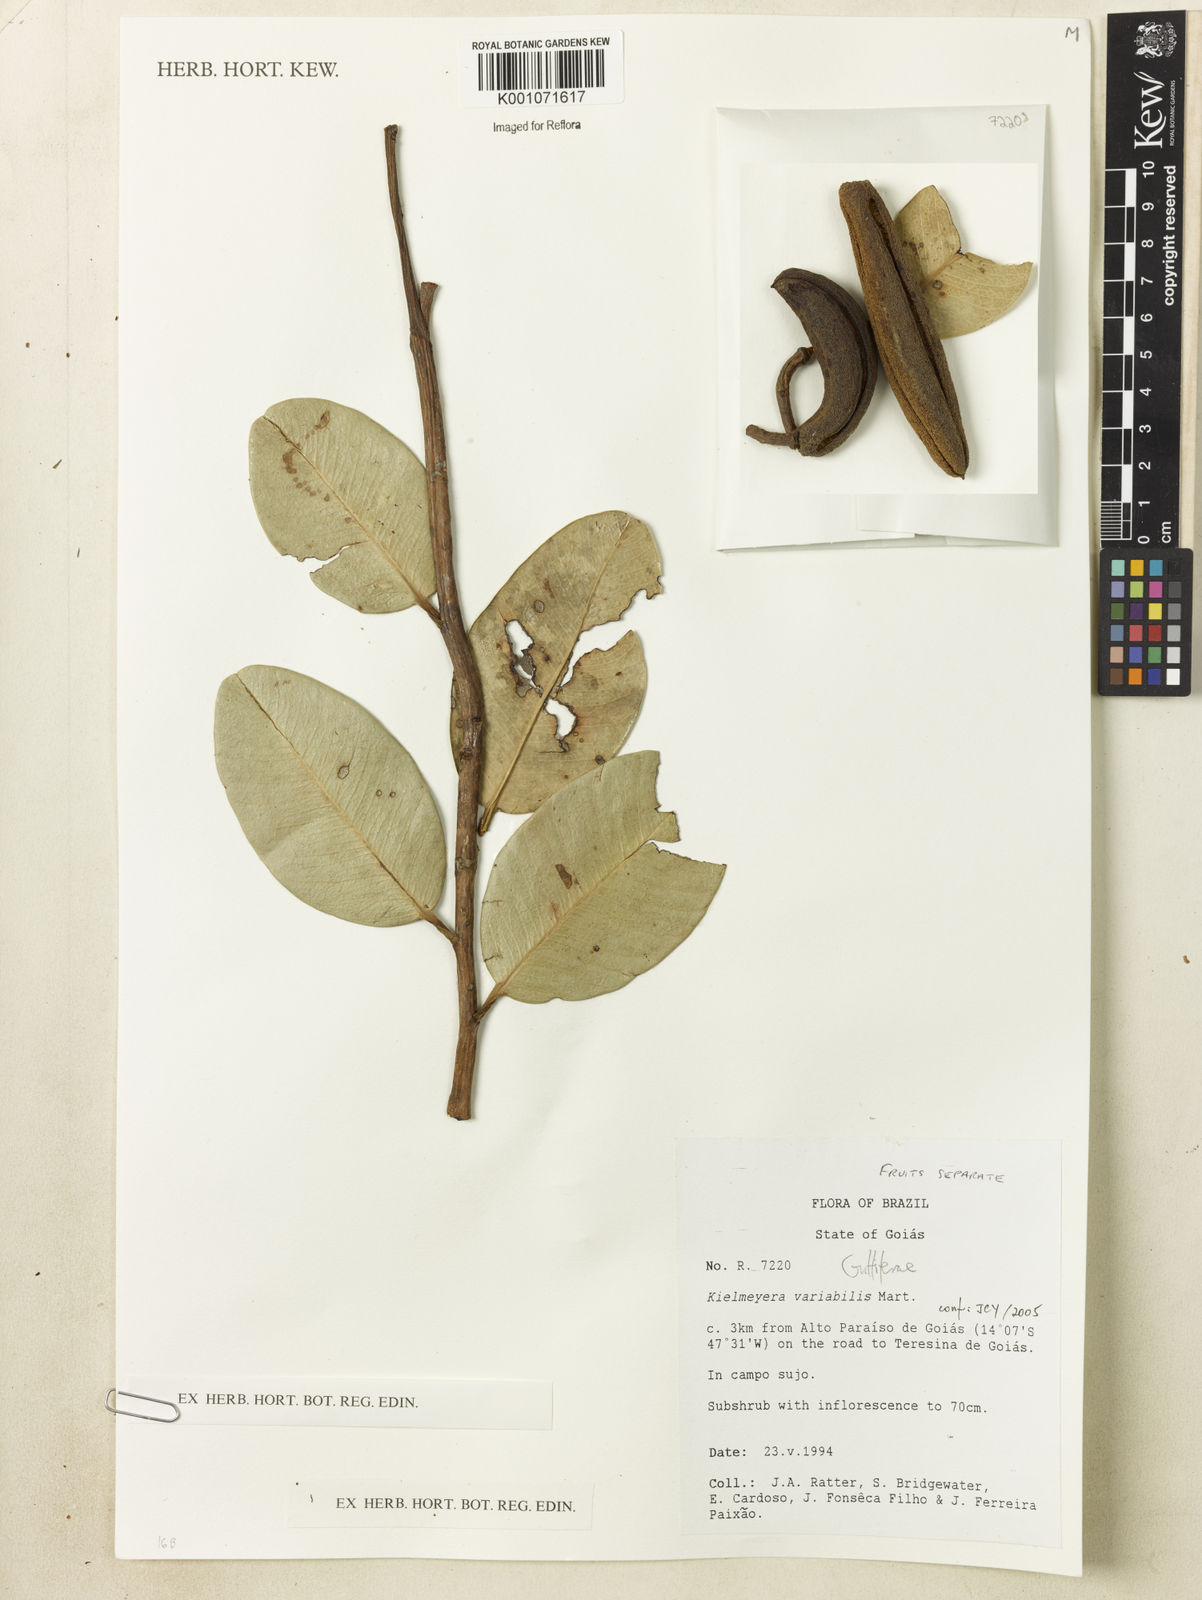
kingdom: Plantae
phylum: Tracheophyta
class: Magnoliopsida
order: Malpighiales
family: Calophyllaceae
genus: Kielmeyera
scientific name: Kielmeyera variabilis
